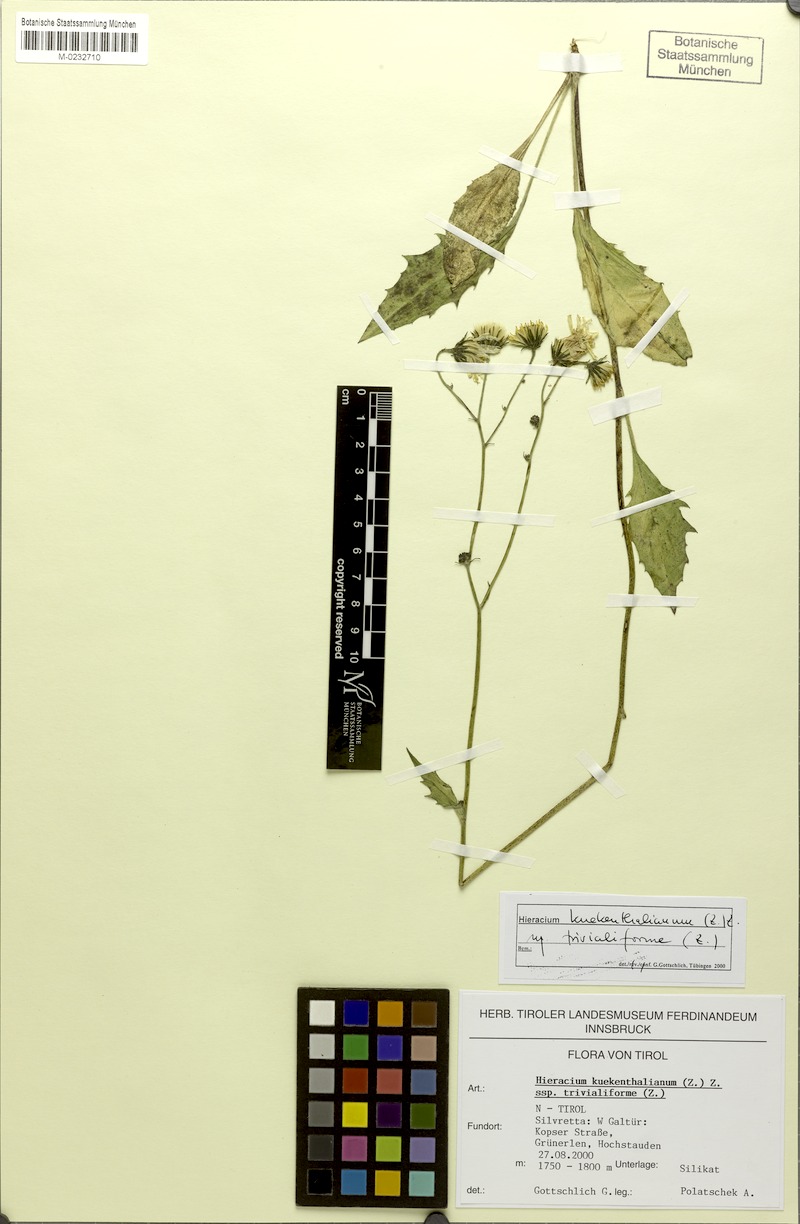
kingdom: Plantae
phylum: Tracheophyta
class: Magnoliopsida
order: Asterales
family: Asteraceae
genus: Hieracium
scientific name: Hieracium kuekenthalianum
